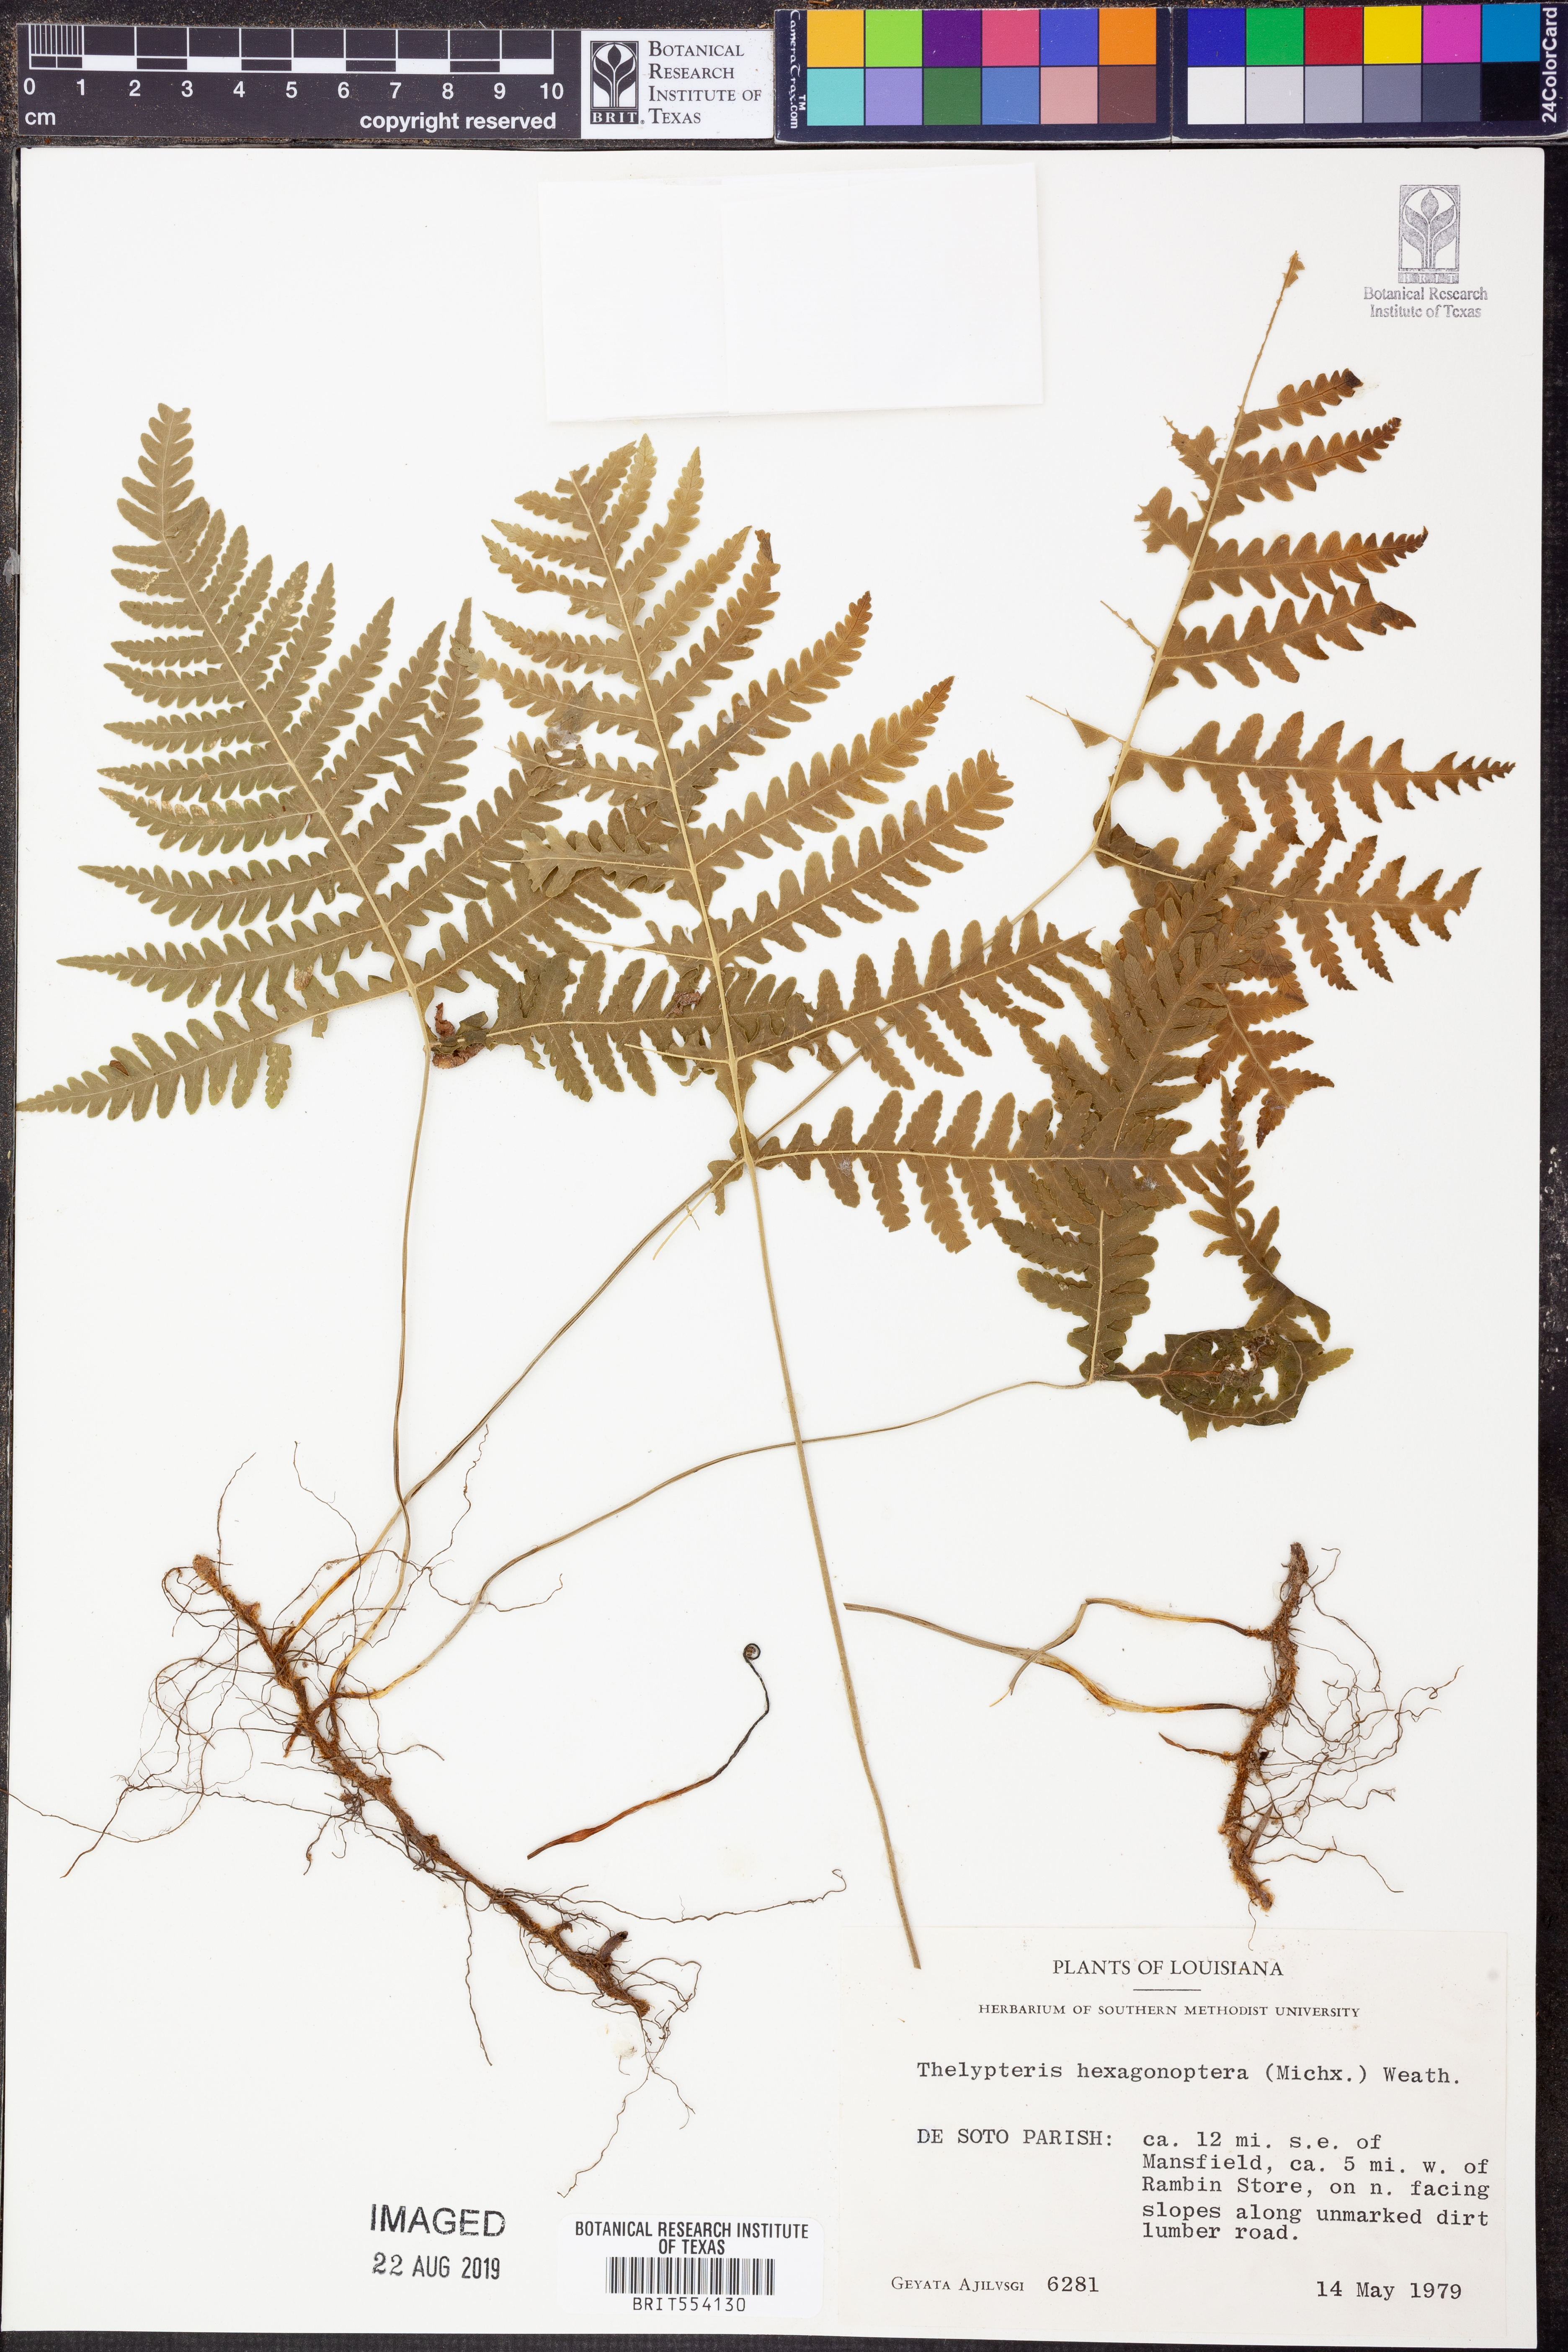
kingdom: Plantae
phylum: Tracheophyta
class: Polypodiopsida
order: Polypodiales
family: Thelypteridaceae
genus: Phegopteris
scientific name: Phegopteris hexagonoptera
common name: Broad beech fern
